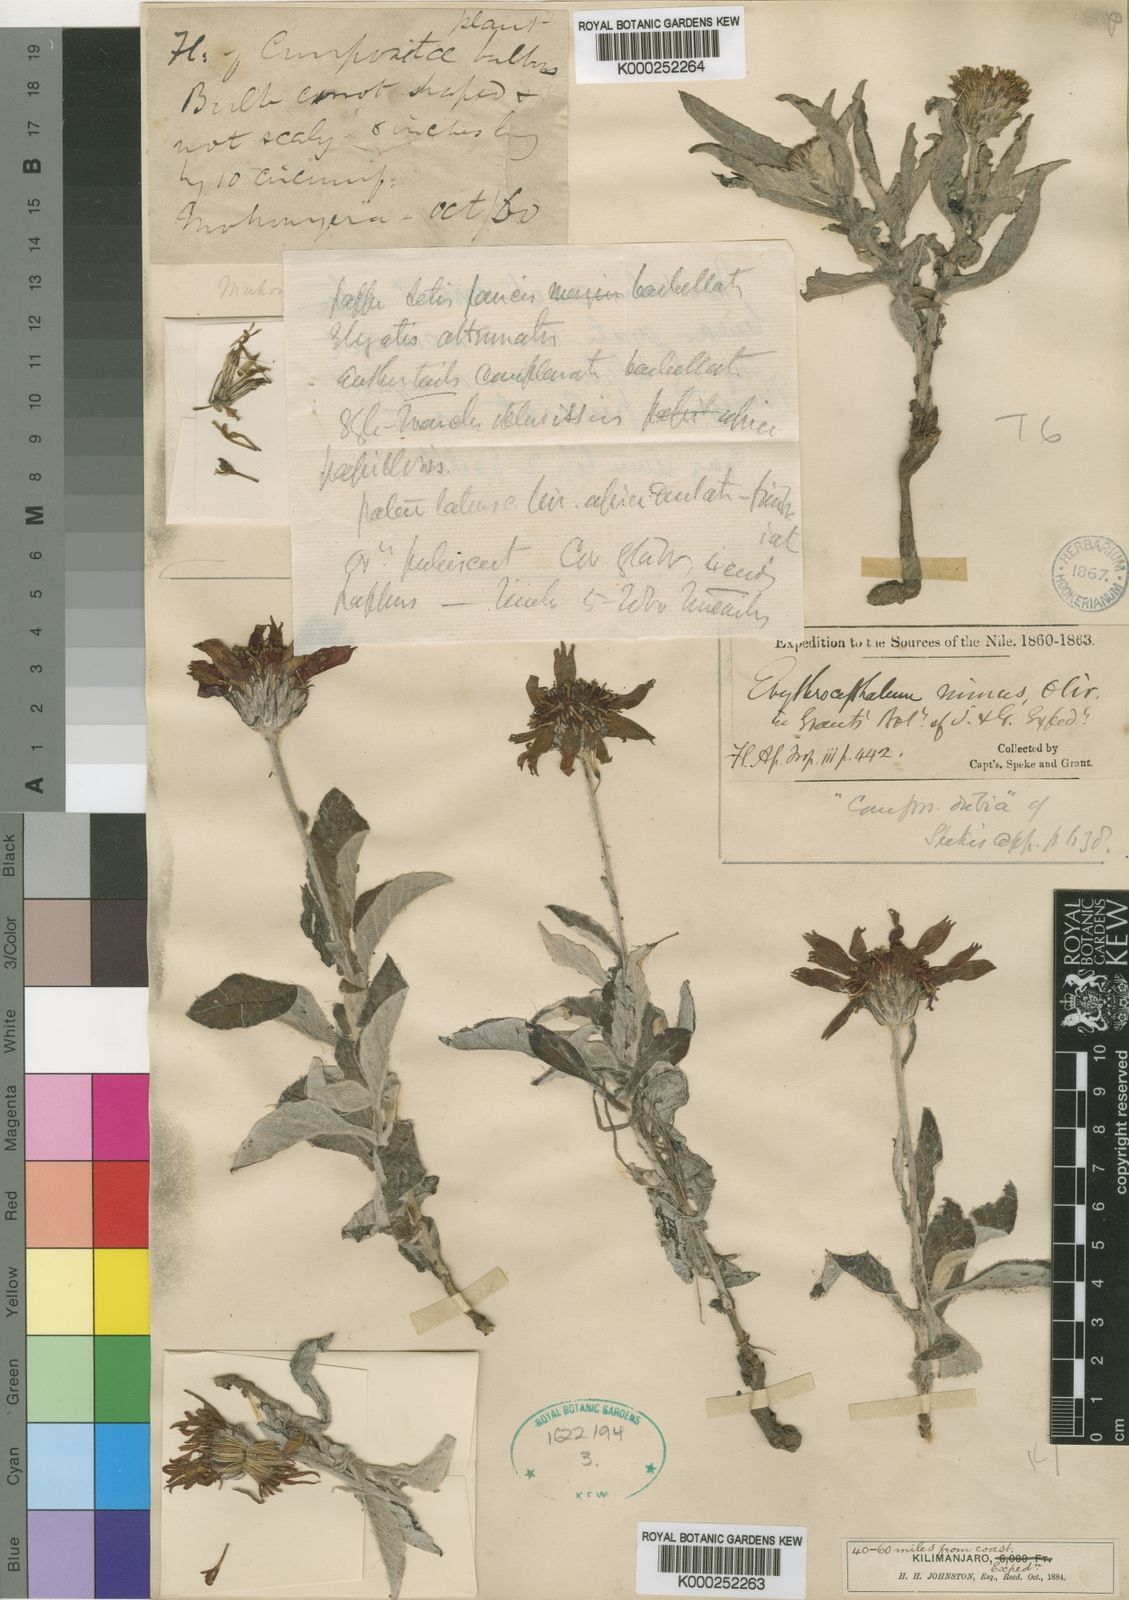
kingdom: Plantae
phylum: Tracheophyta
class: Magnoliopsida
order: Asterales
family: Asteraceae
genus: Erythrocephalum
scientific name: Erythrocephalum minus
